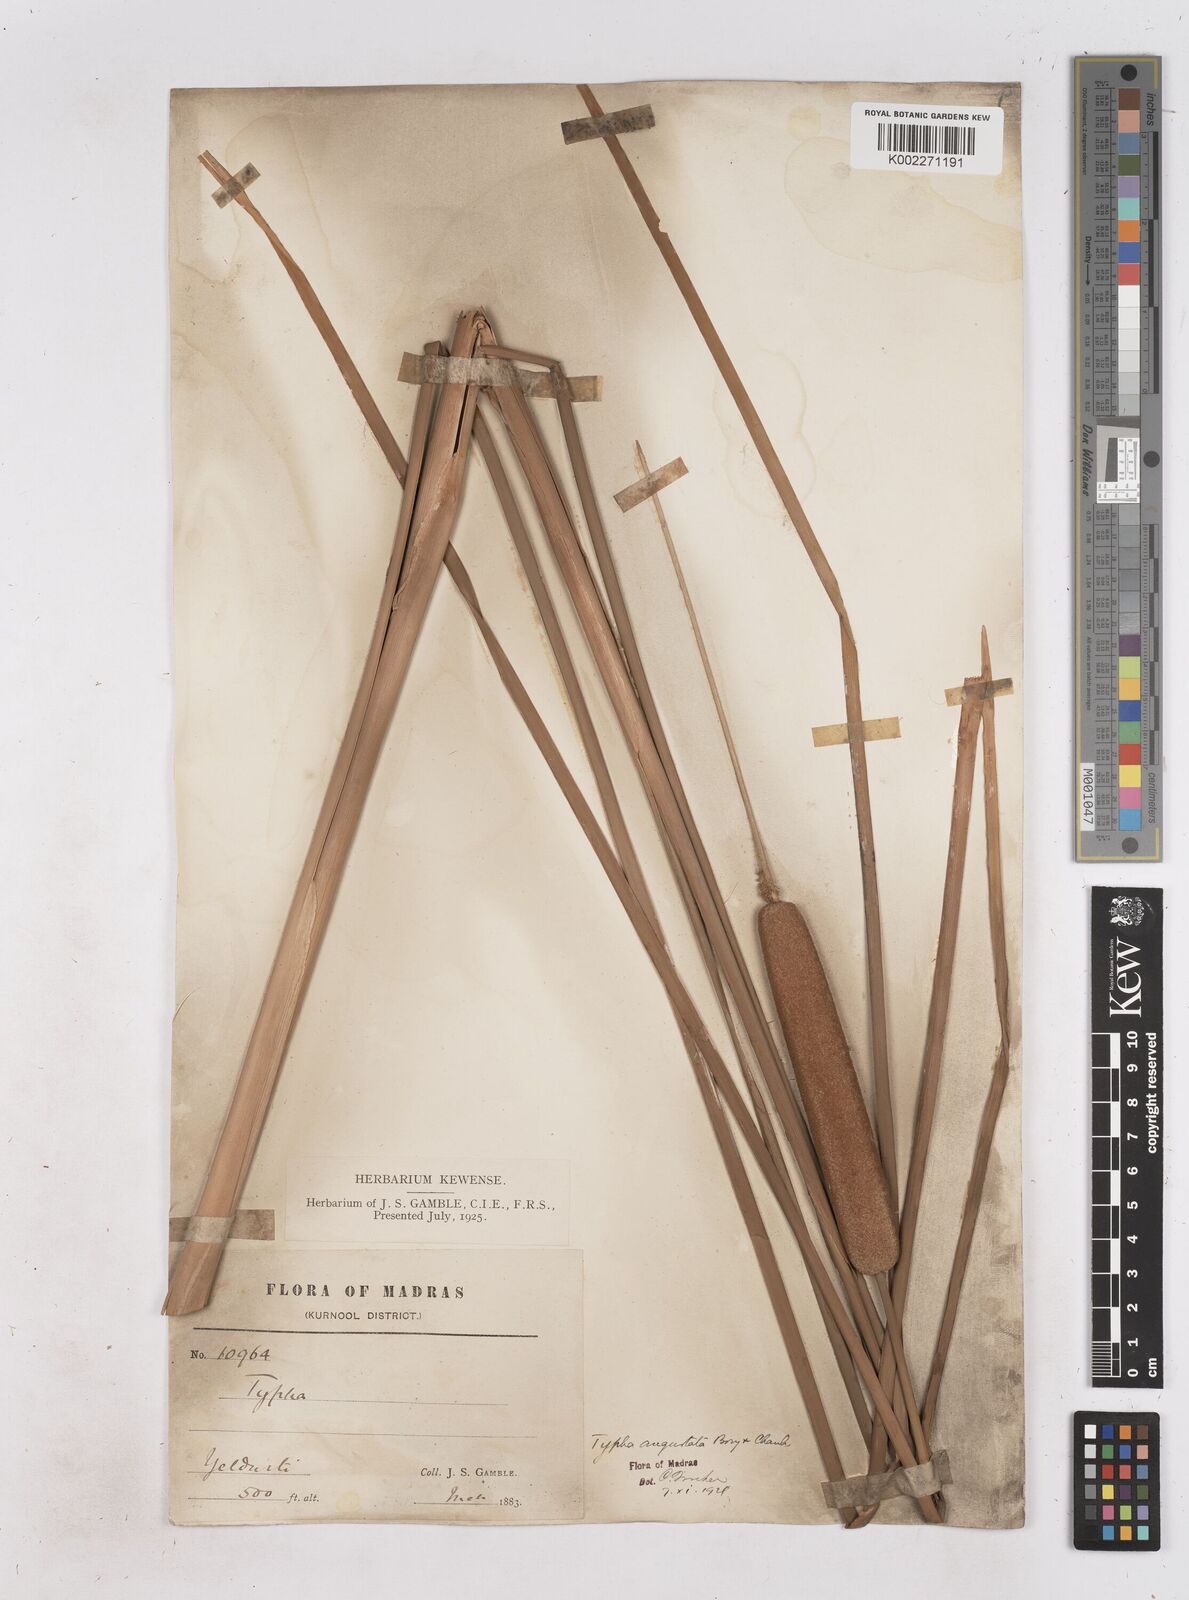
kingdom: Plantae
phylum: Tracheophyta
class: Liliopsida
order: Poales
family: Typhaceae
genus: Typha
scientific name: Typha domingensis
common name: Southern cattail
